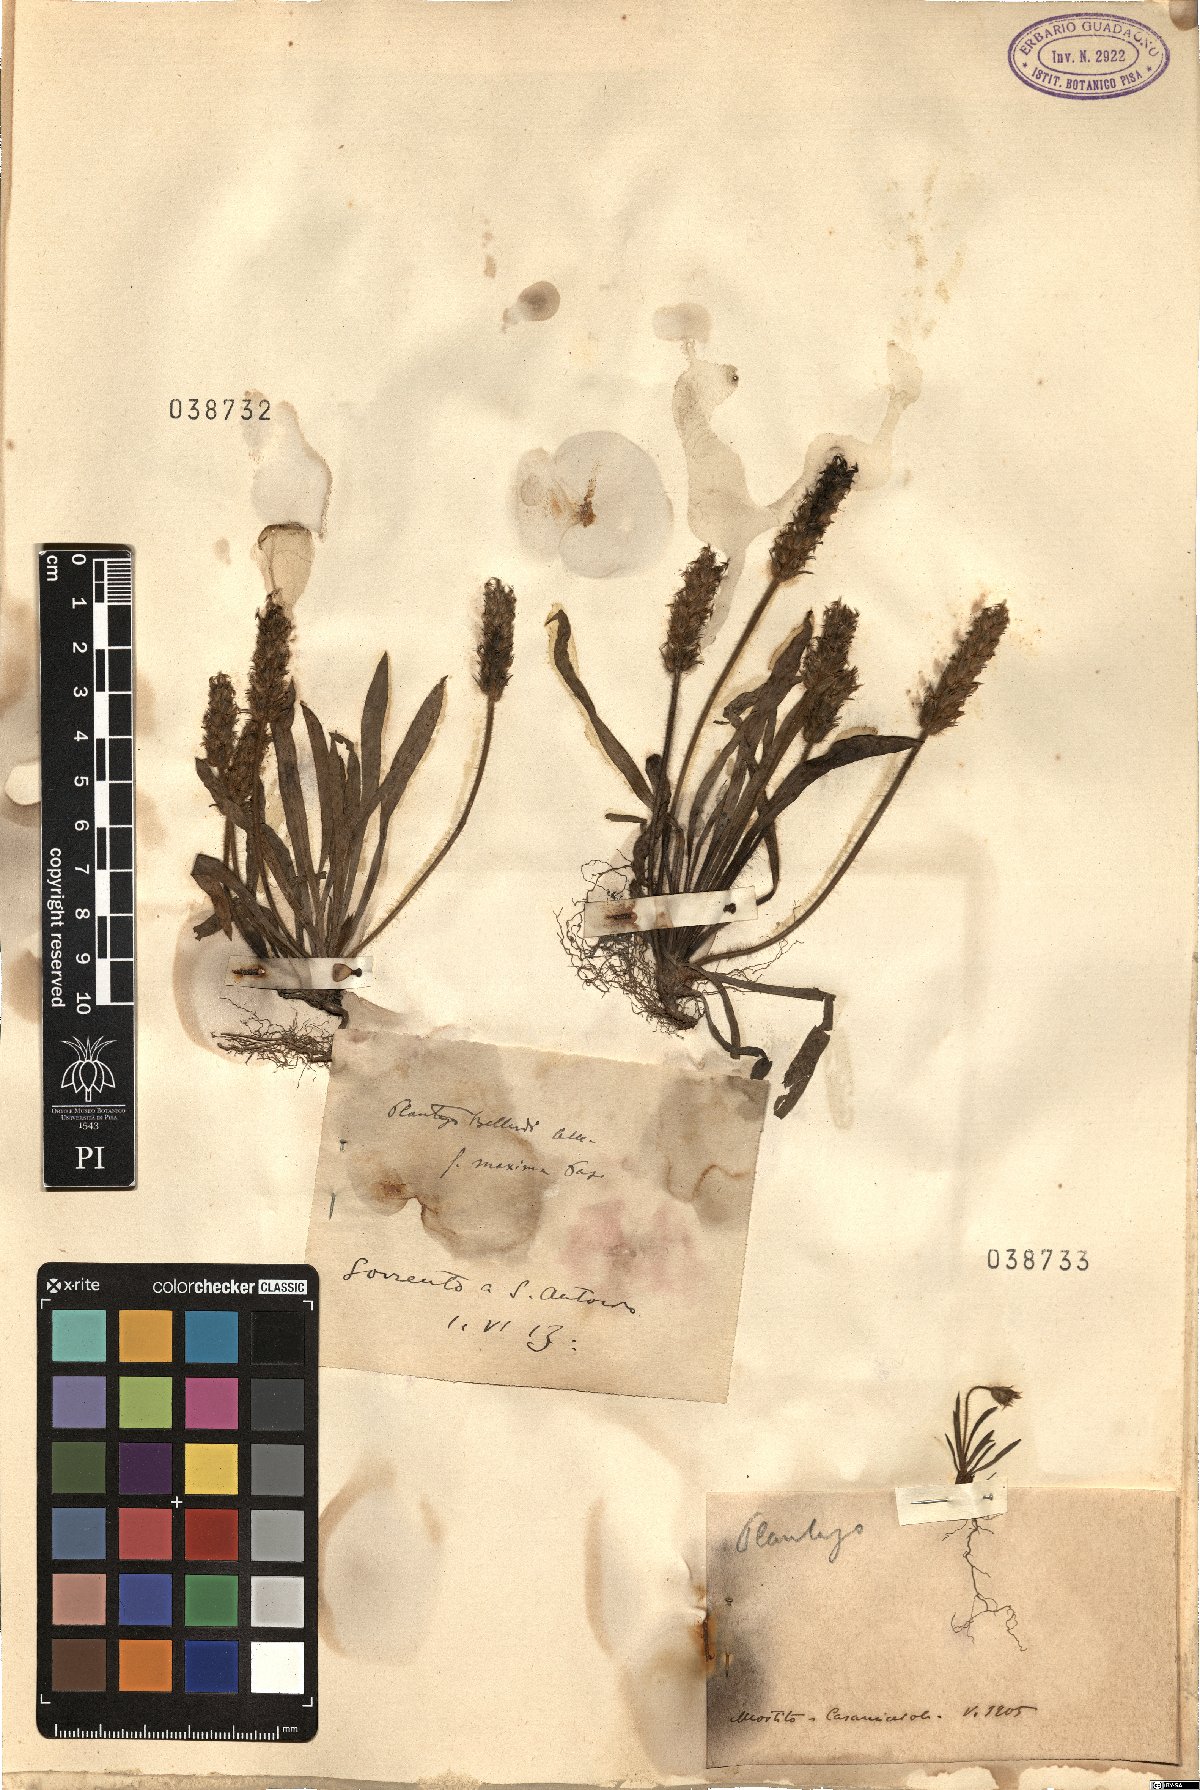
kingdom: Plantae
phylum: Tracheophyta
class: Magnoliopsida
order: Lamiales
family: Plantaginaceae
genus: Plantago
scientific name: Plantago
